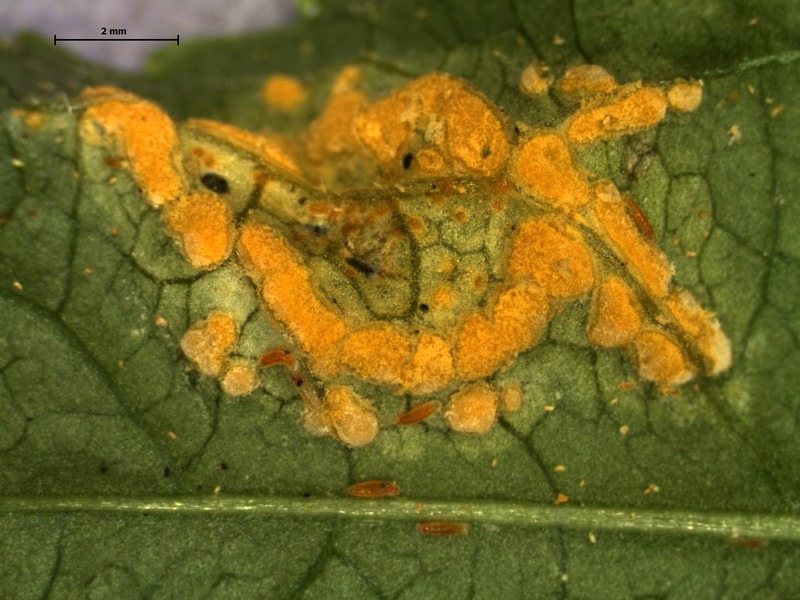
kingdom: Fungi
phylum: Basidiomycota
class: Pucciniomycetes
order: Pucciniales
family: Melampsoraceae
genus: Melampsora
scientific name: Melampsora populnea
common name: Dog's mercury rust
